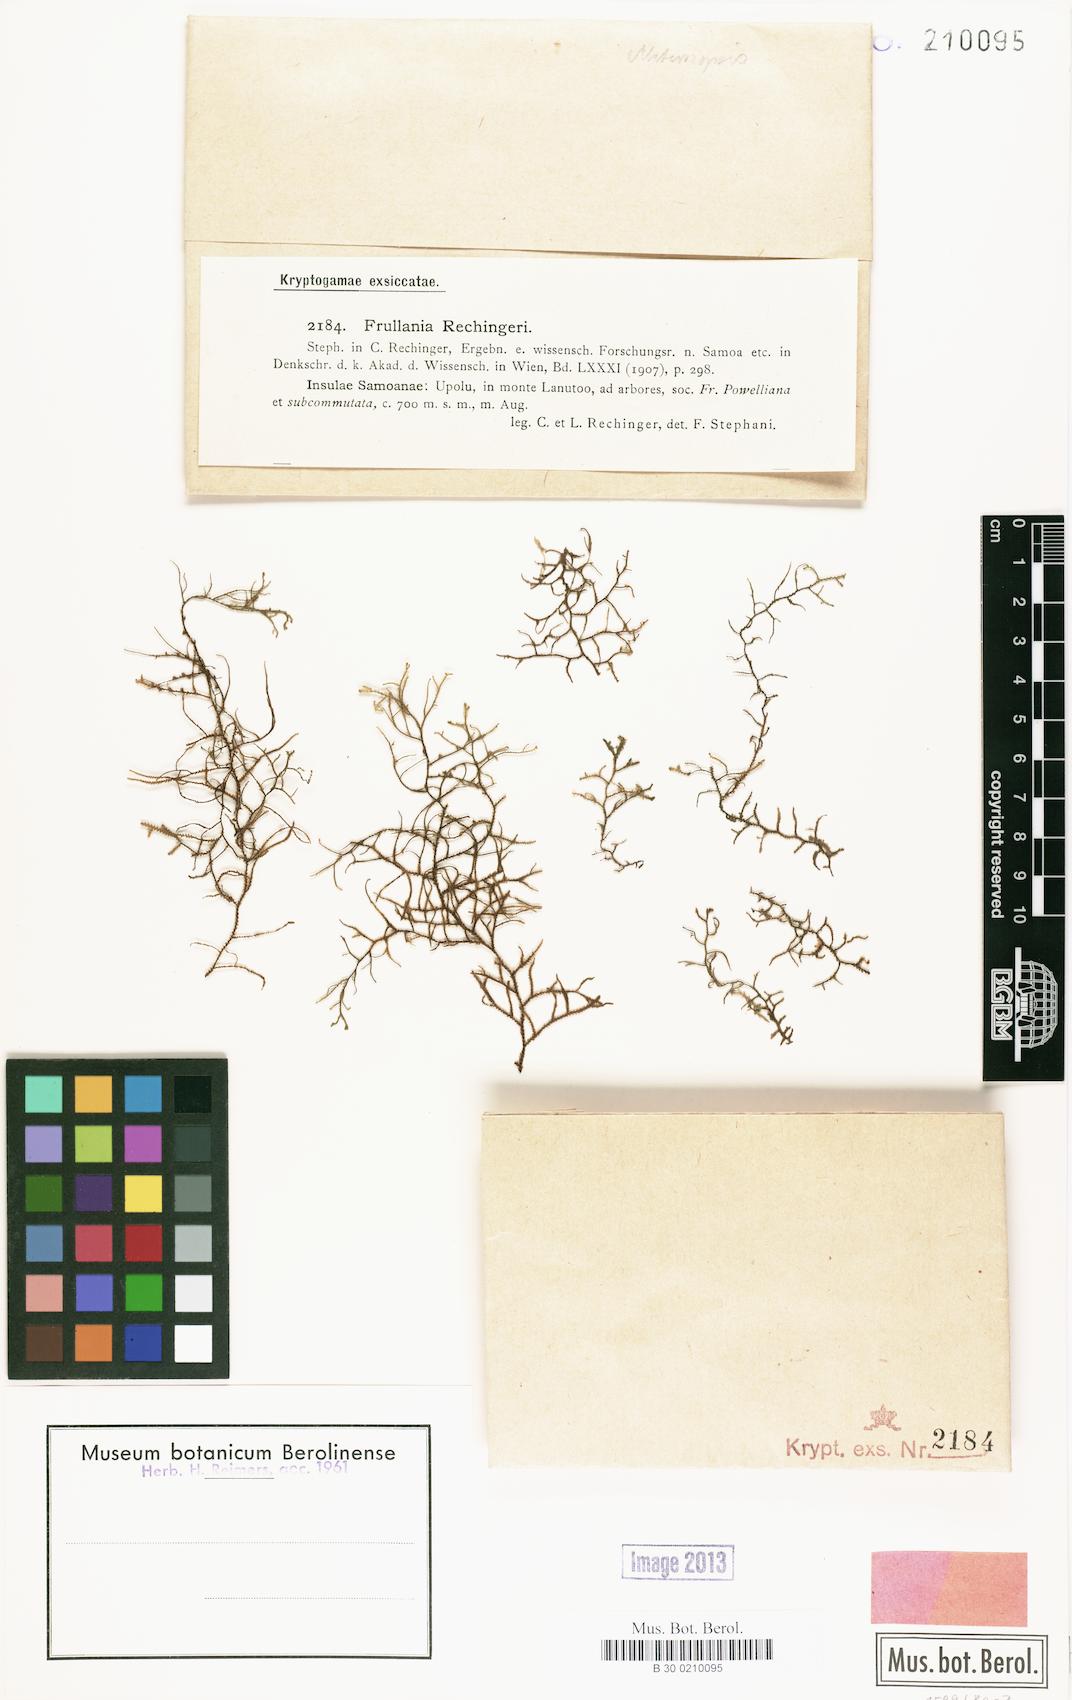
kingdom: Plantae
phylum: Marchantiophyta
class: Jungermanniopsida
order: Porellales
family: Frullaniaceae
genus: Frullania
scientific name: Frullania immersa
